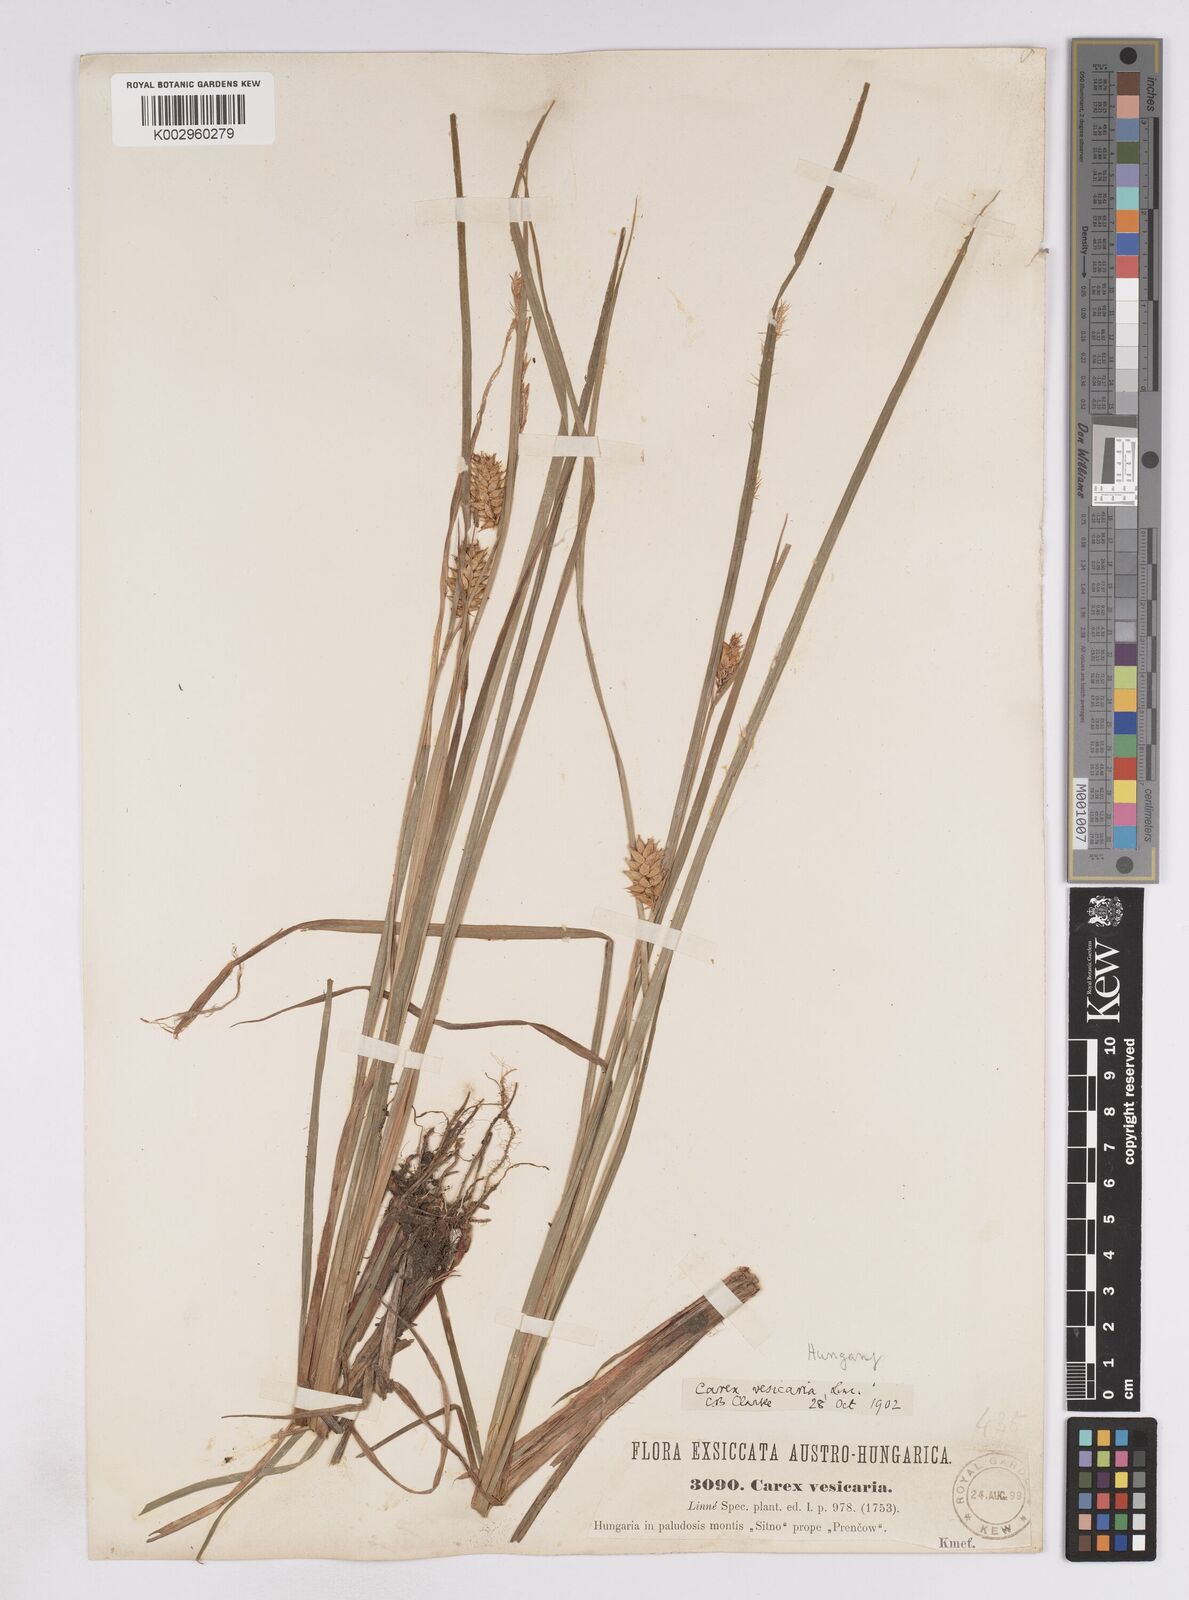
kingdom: Plantae
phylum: Tracheophyta
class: Liliopsida
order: Poales
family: Cyperaceae
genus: Carex
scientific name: Carex vesicaria
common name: Bladder-sedge
